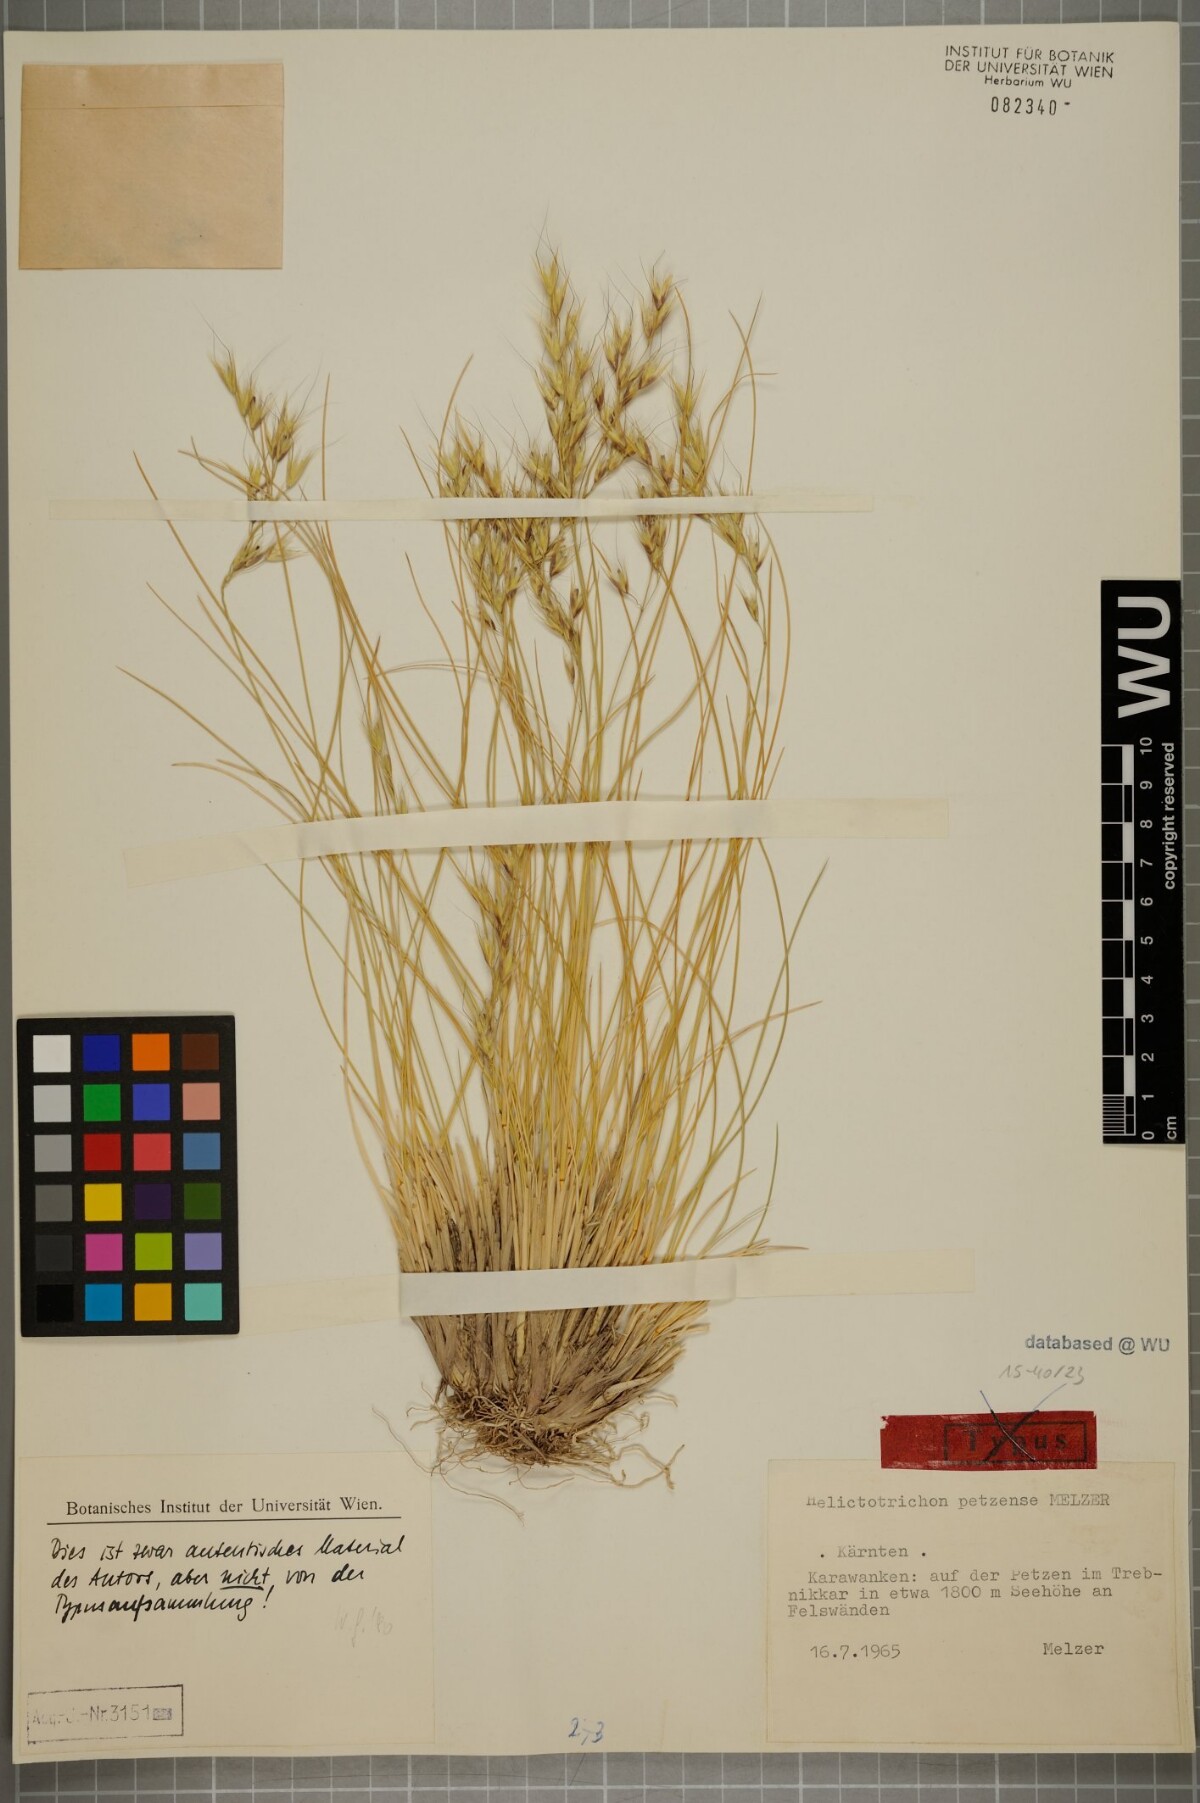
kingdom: Plantae
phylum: Tracheophyta
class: Liliopsida
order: Poales
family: Poaceae
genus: Helictotrichon
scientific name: Helictotrichon petzense
